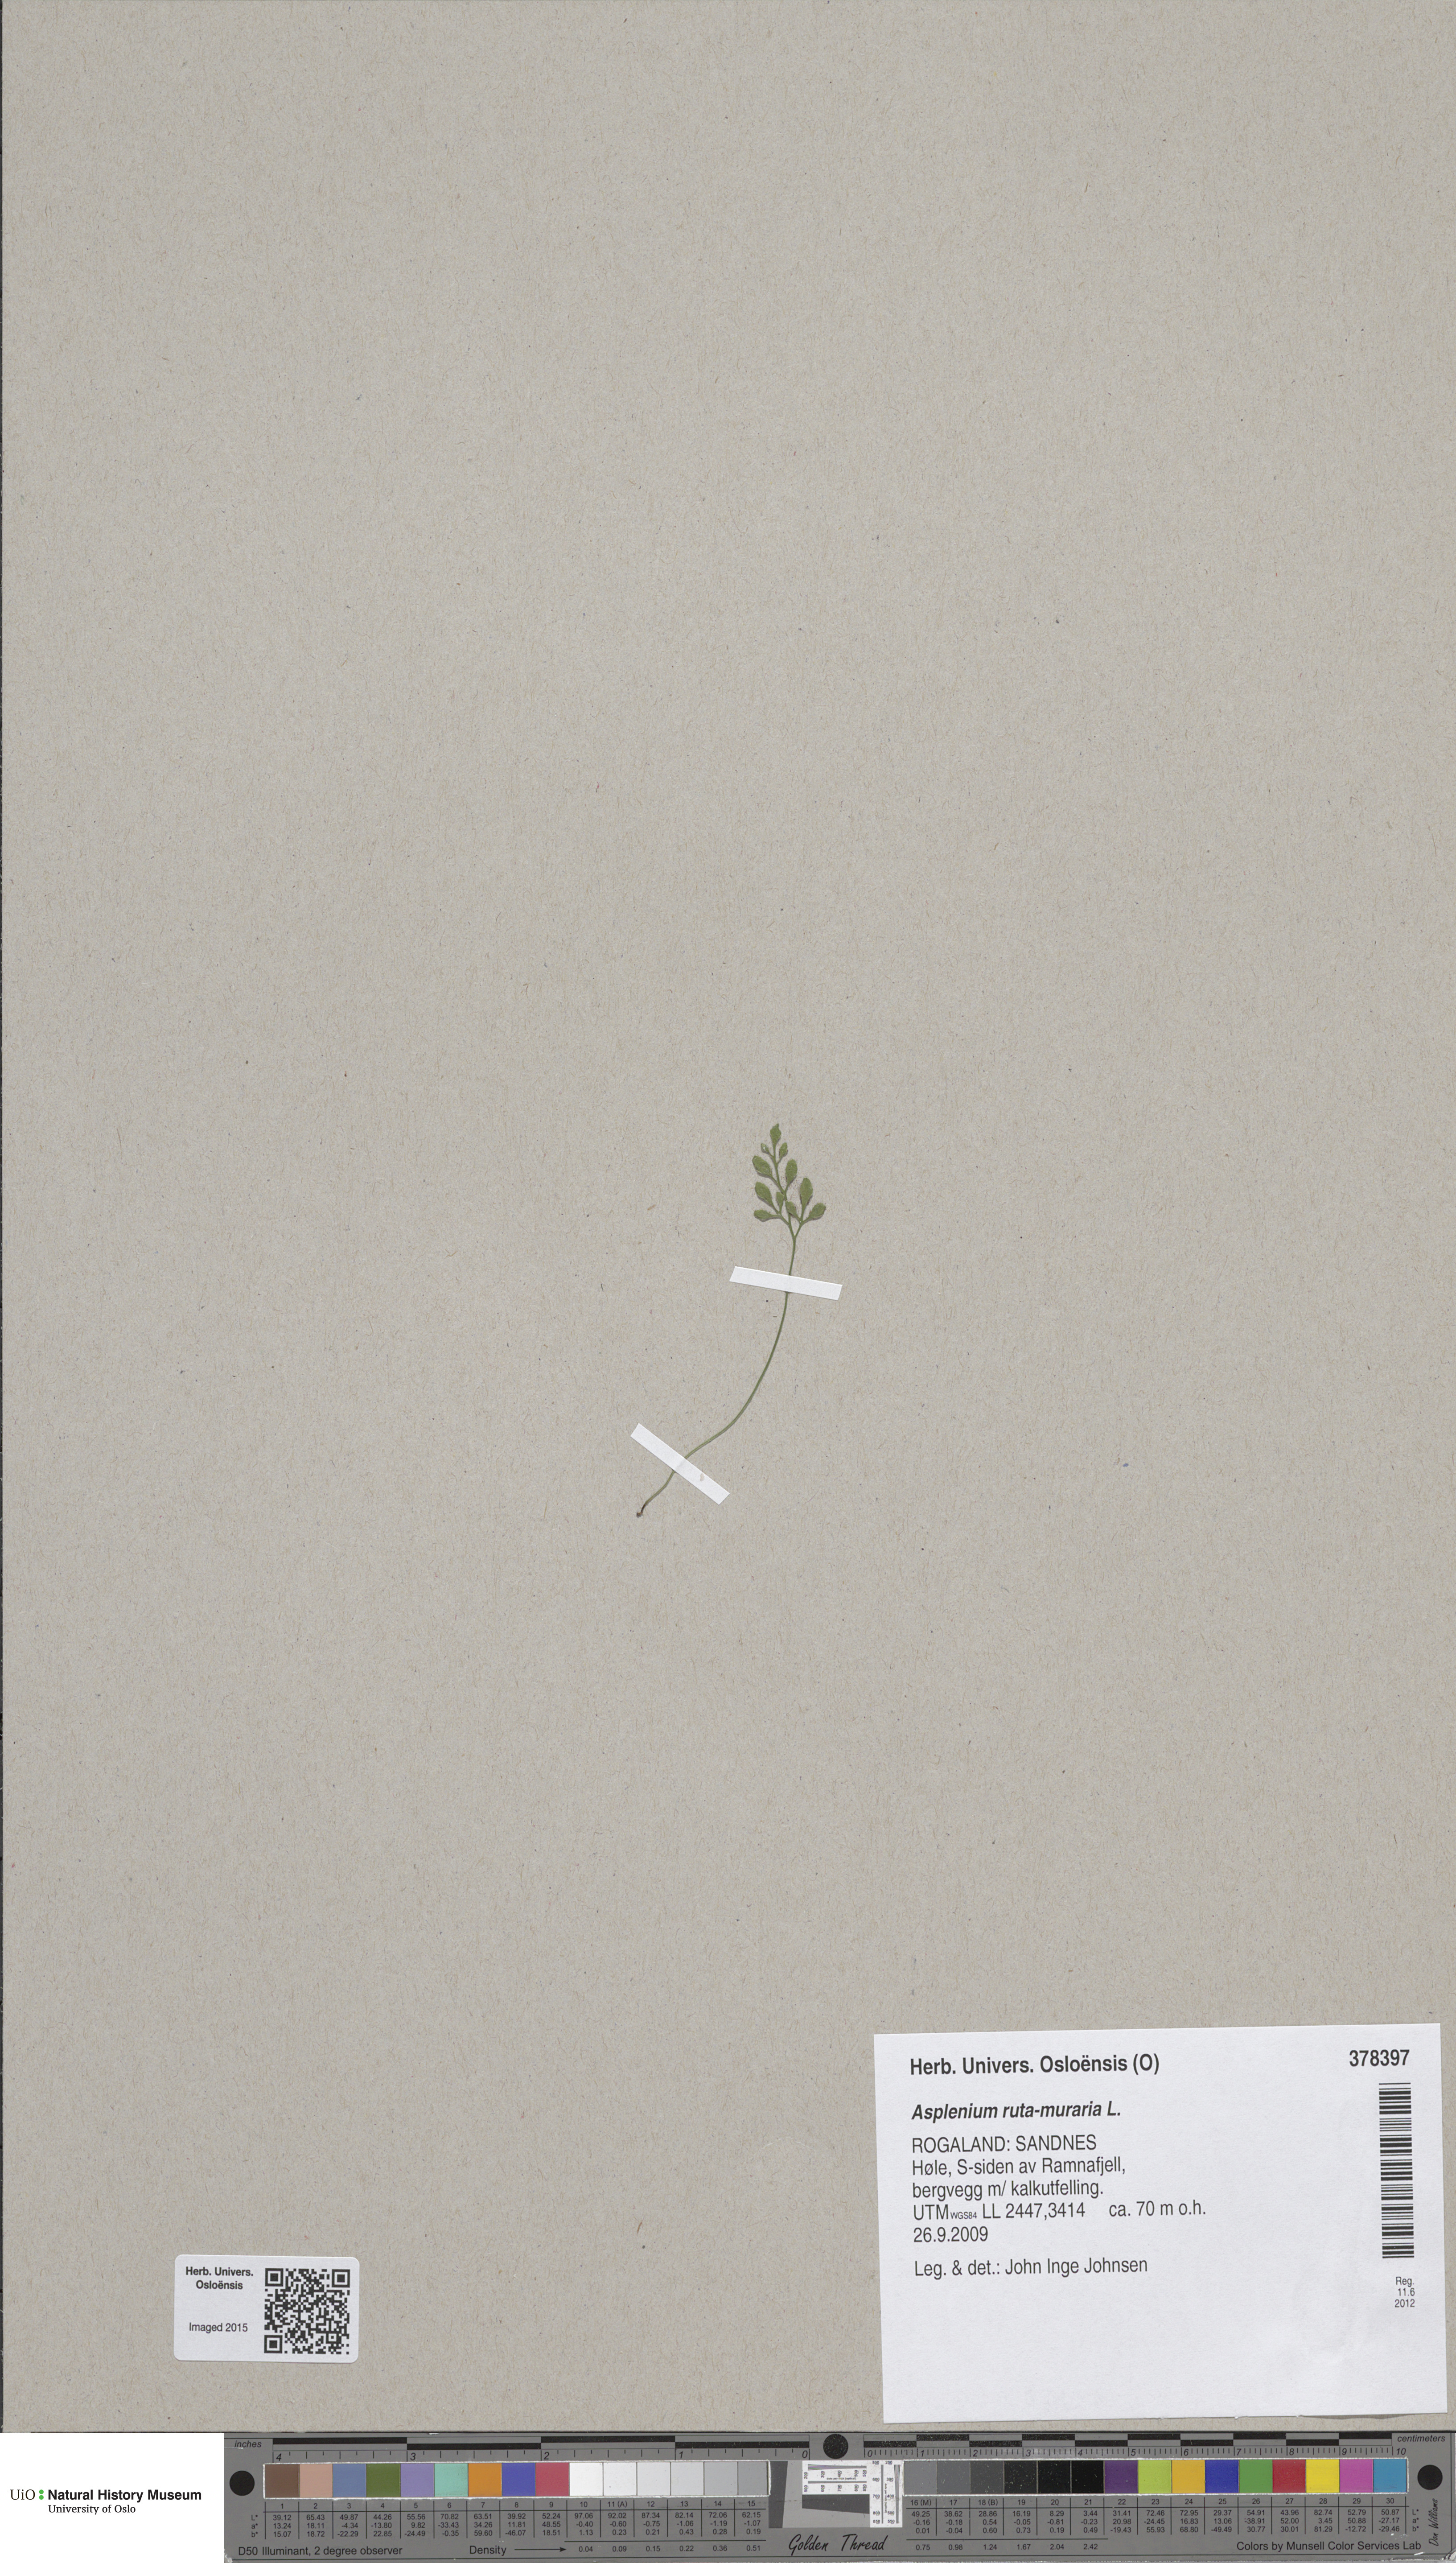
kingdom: Plantae
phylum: Tracheophyta
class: Polypodiopsida
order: Polypodiales
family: Aspleniaceae
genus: Asplenium
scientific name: Asplenium ruta-muraria
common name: Wall-rue
